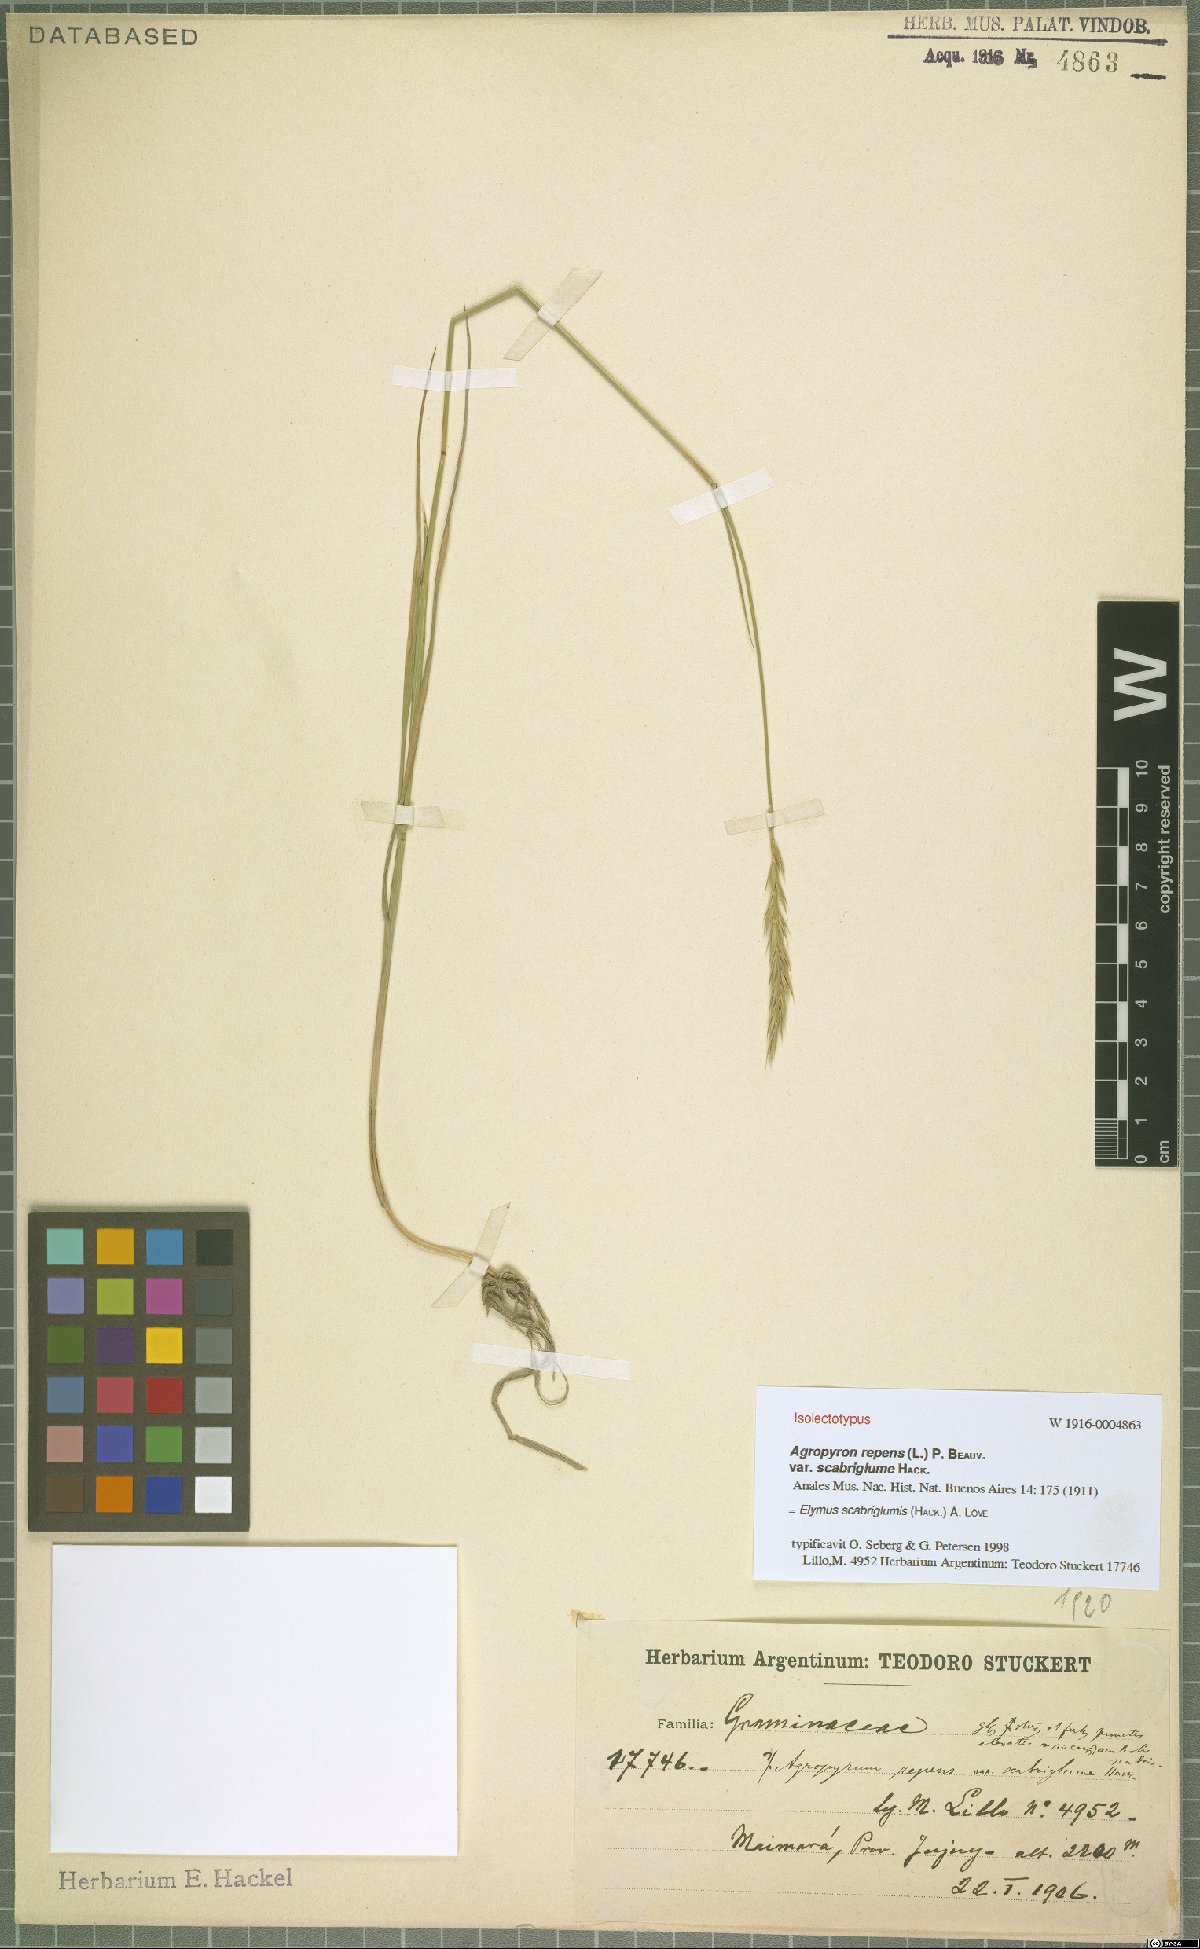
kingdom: Plantae
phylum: Tracheophyta
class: Liliopsida
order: Poales
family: Poaceae
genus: Elymus
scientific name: Elymus scabriglumis
